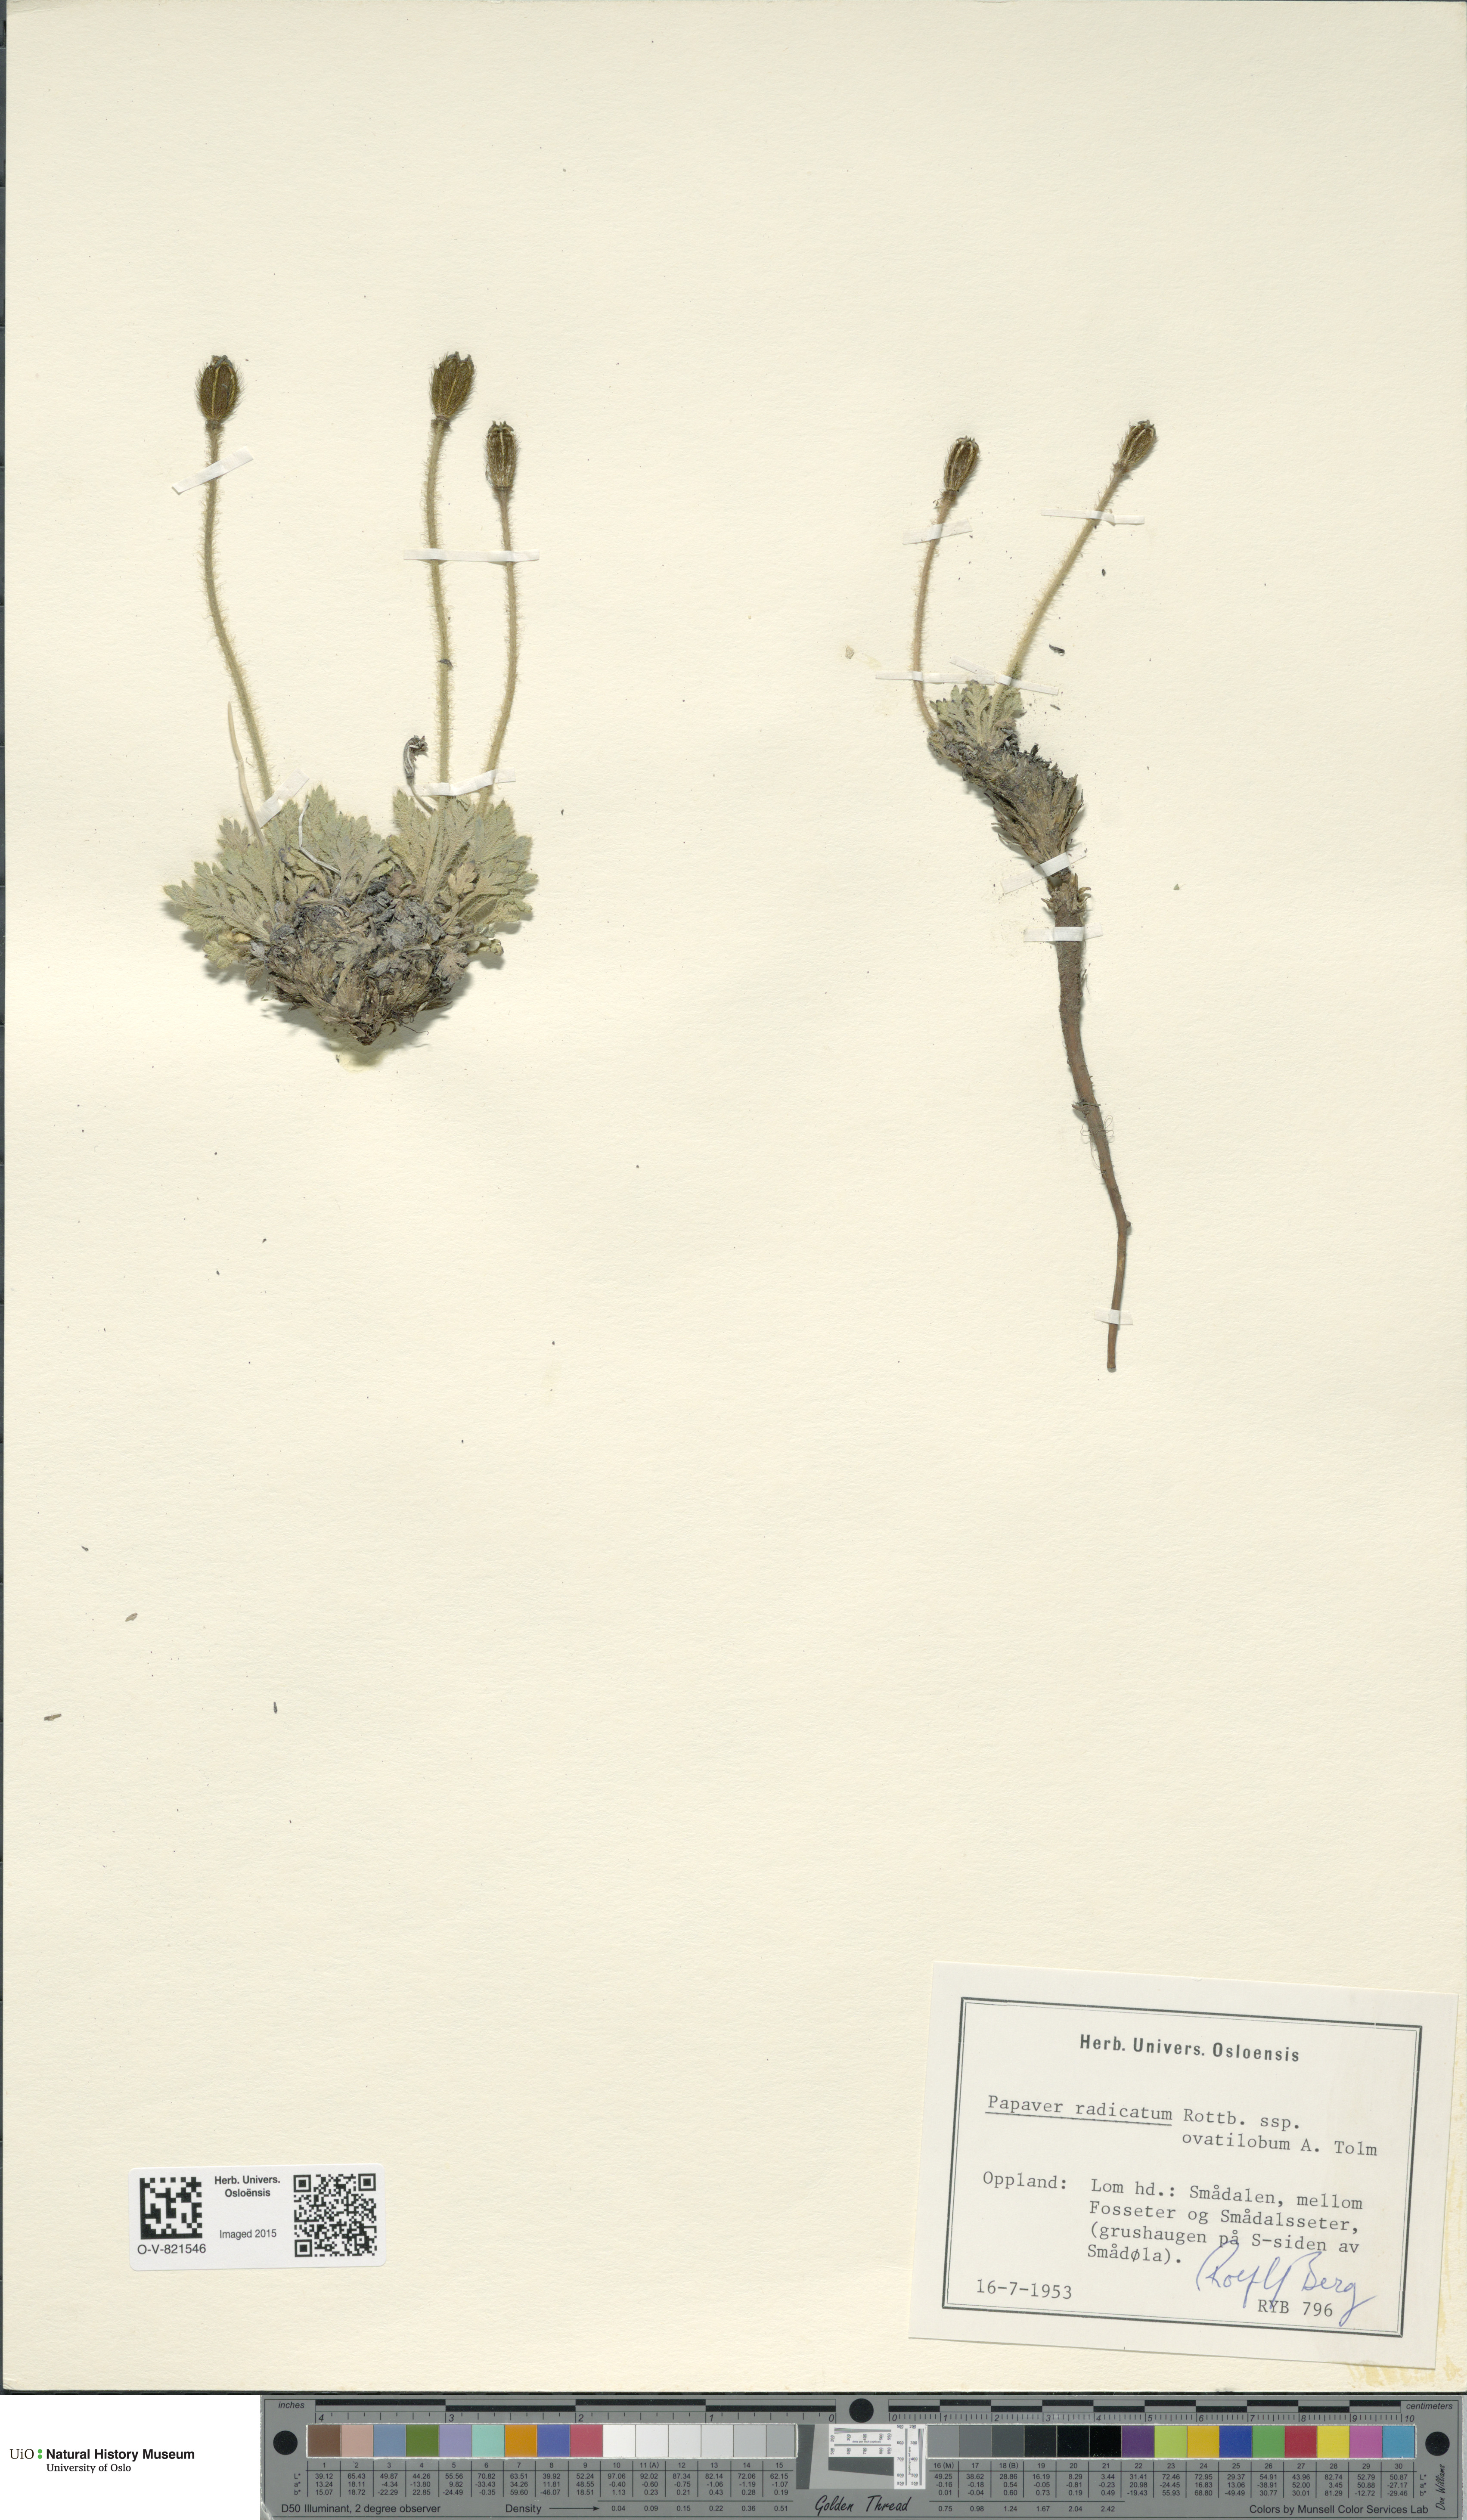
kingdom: Plantae
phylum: Tracheophyta
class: Magnoliopsida
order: Ranunculales
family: Papaveraceae
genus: Papaver
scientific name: Papaver radicatum
